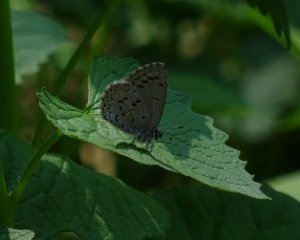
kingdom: Animalia
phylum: Arthropoda
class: Insecta
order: Lepidoptera
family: Lycaenidae
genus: Celastrina
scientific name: Celastrina lucia
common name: Northern Spring Azure
